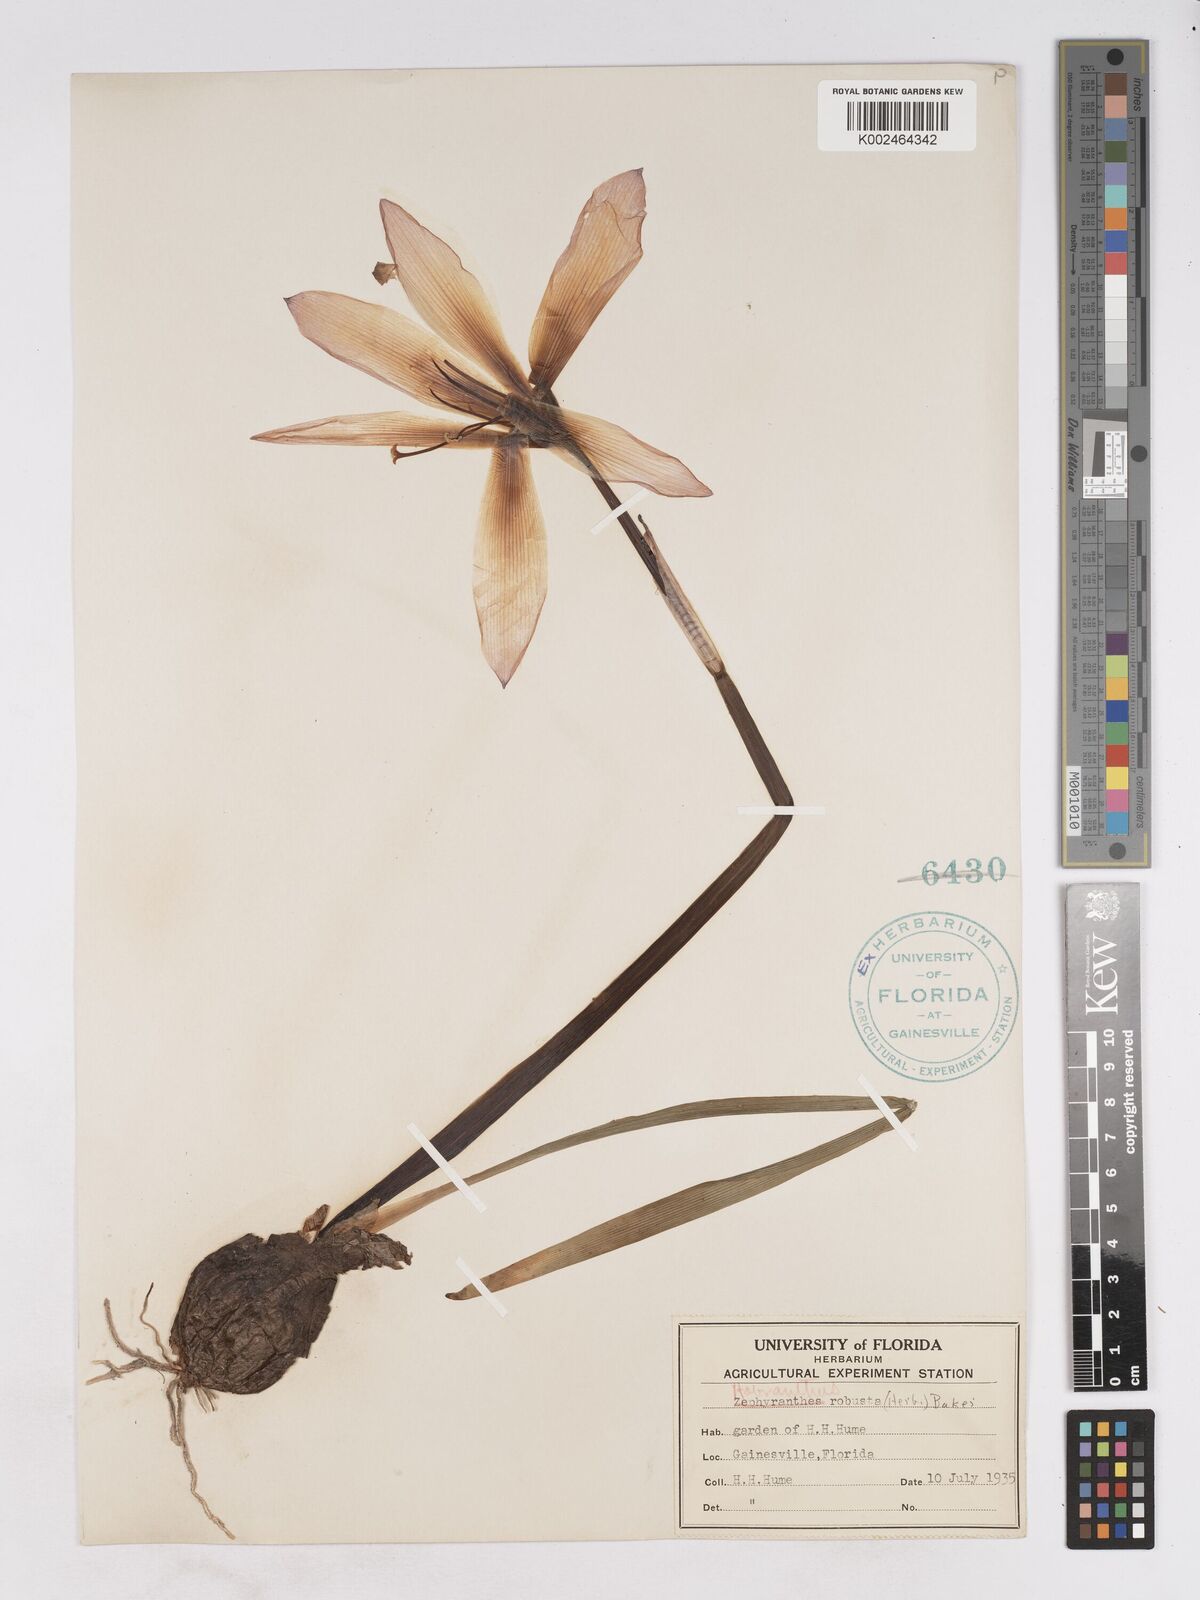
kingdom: Plantae
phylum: Tracheophyta
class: Liliopsida
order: Asparagales
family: Amaryllidaceae
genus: Zephyranthes
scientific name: Zephyranthes robusta
